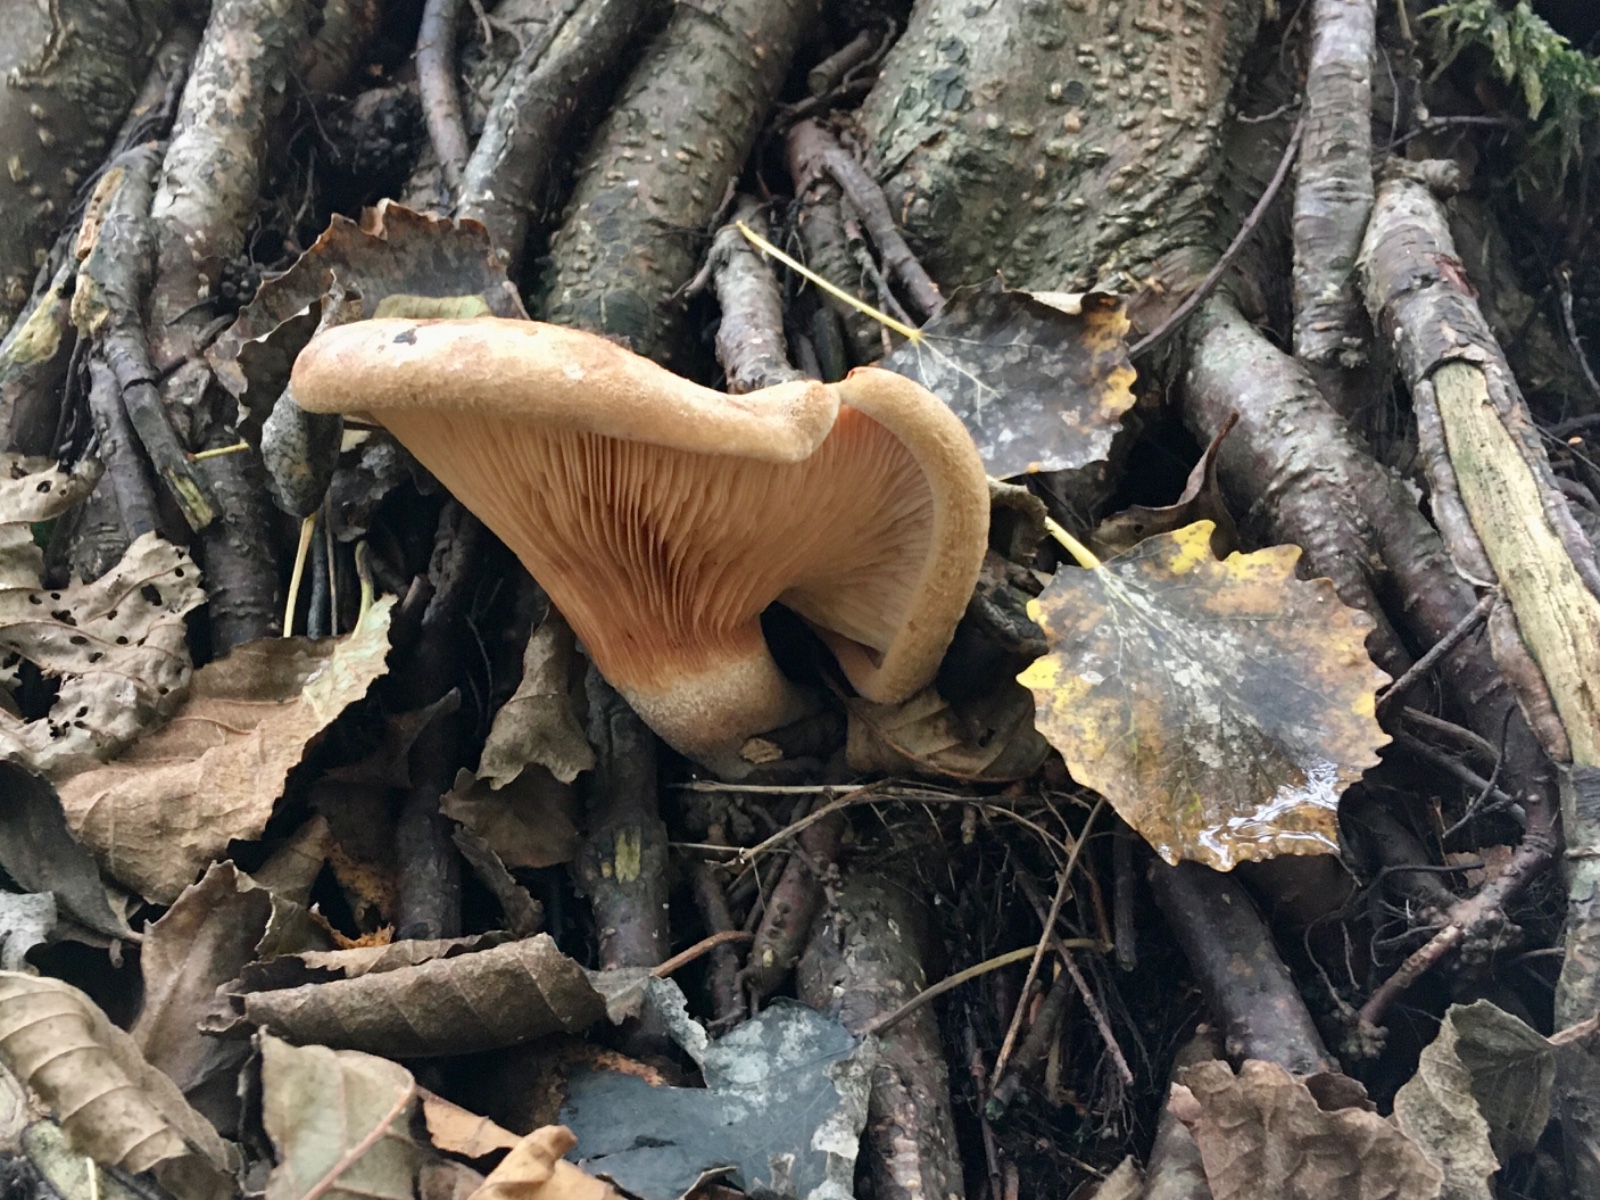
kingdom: Fungi
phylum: Basidiomycota
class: Agaricomycetes
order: Boletales
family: Paxillaceae
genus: Paxillus
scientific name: Paxillus rubicundulus
